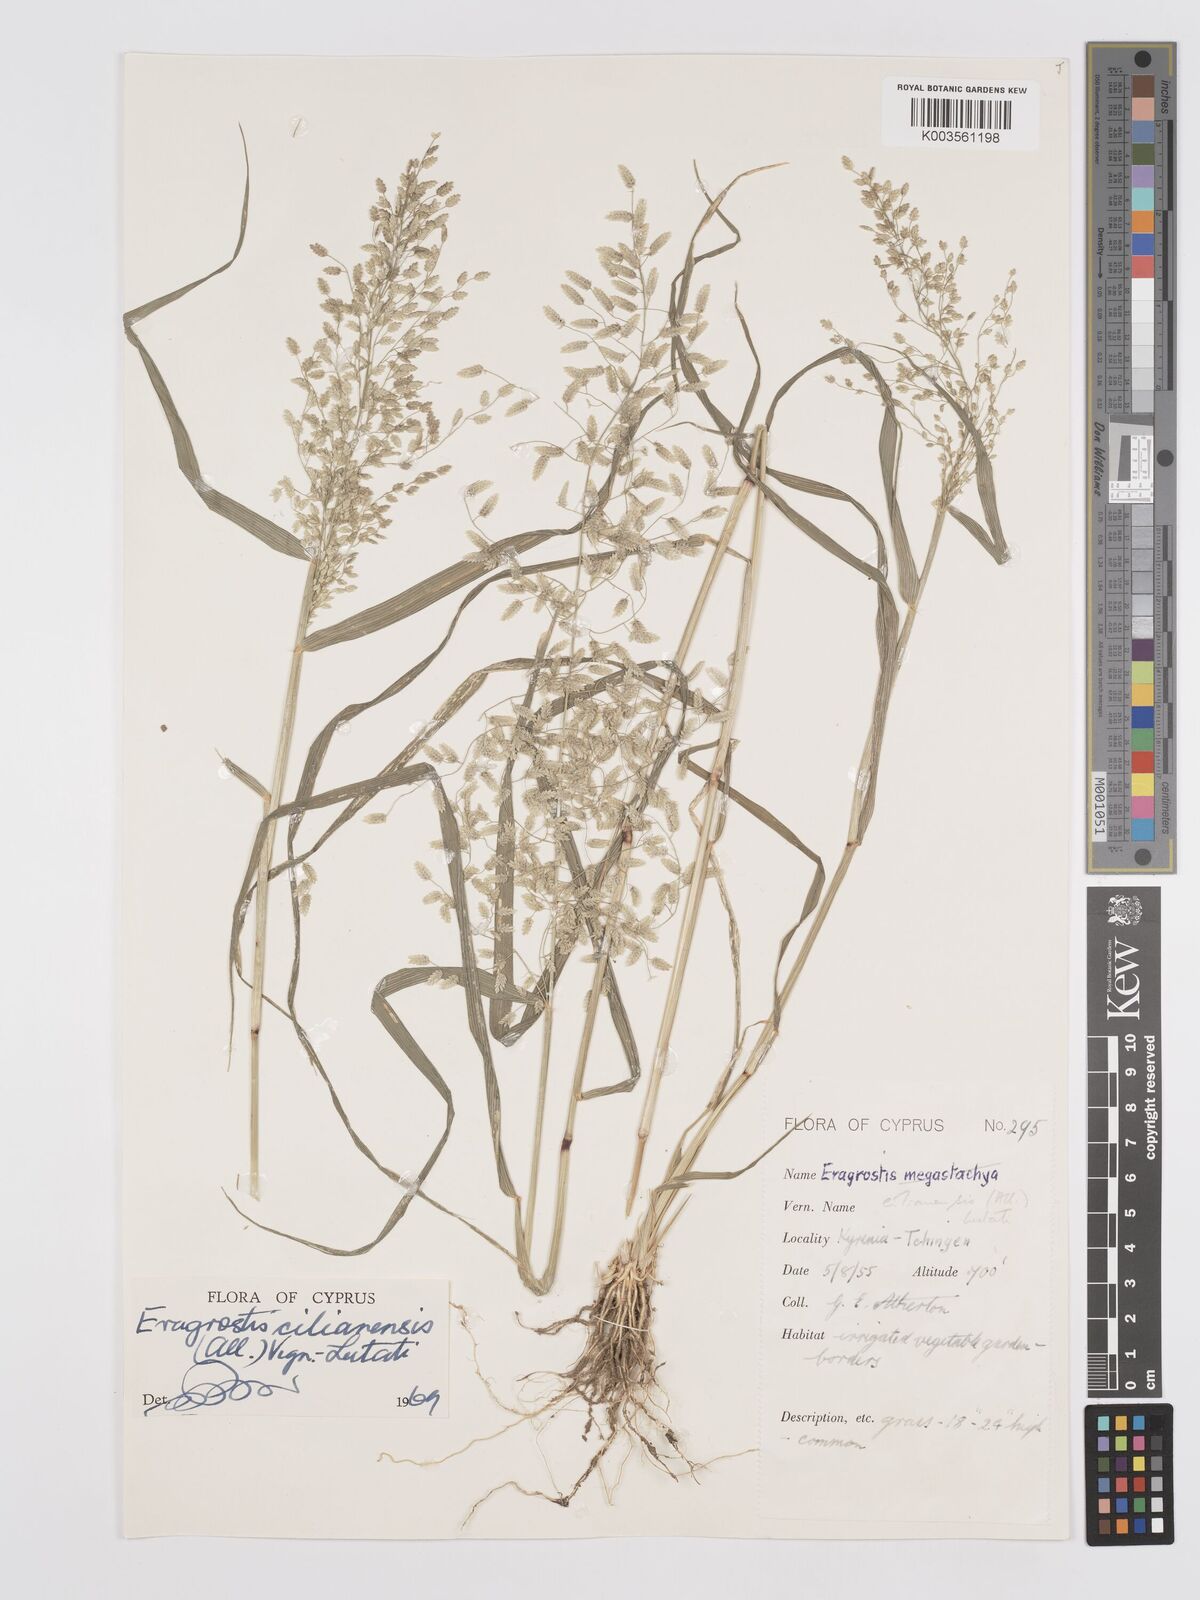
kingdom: Plantae
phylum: Tracheophyta
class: Liliopsida
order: Poales
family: Poaceae
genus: Eragrostis
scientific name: Eragrostis cilianensis
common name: Stinkgrass
